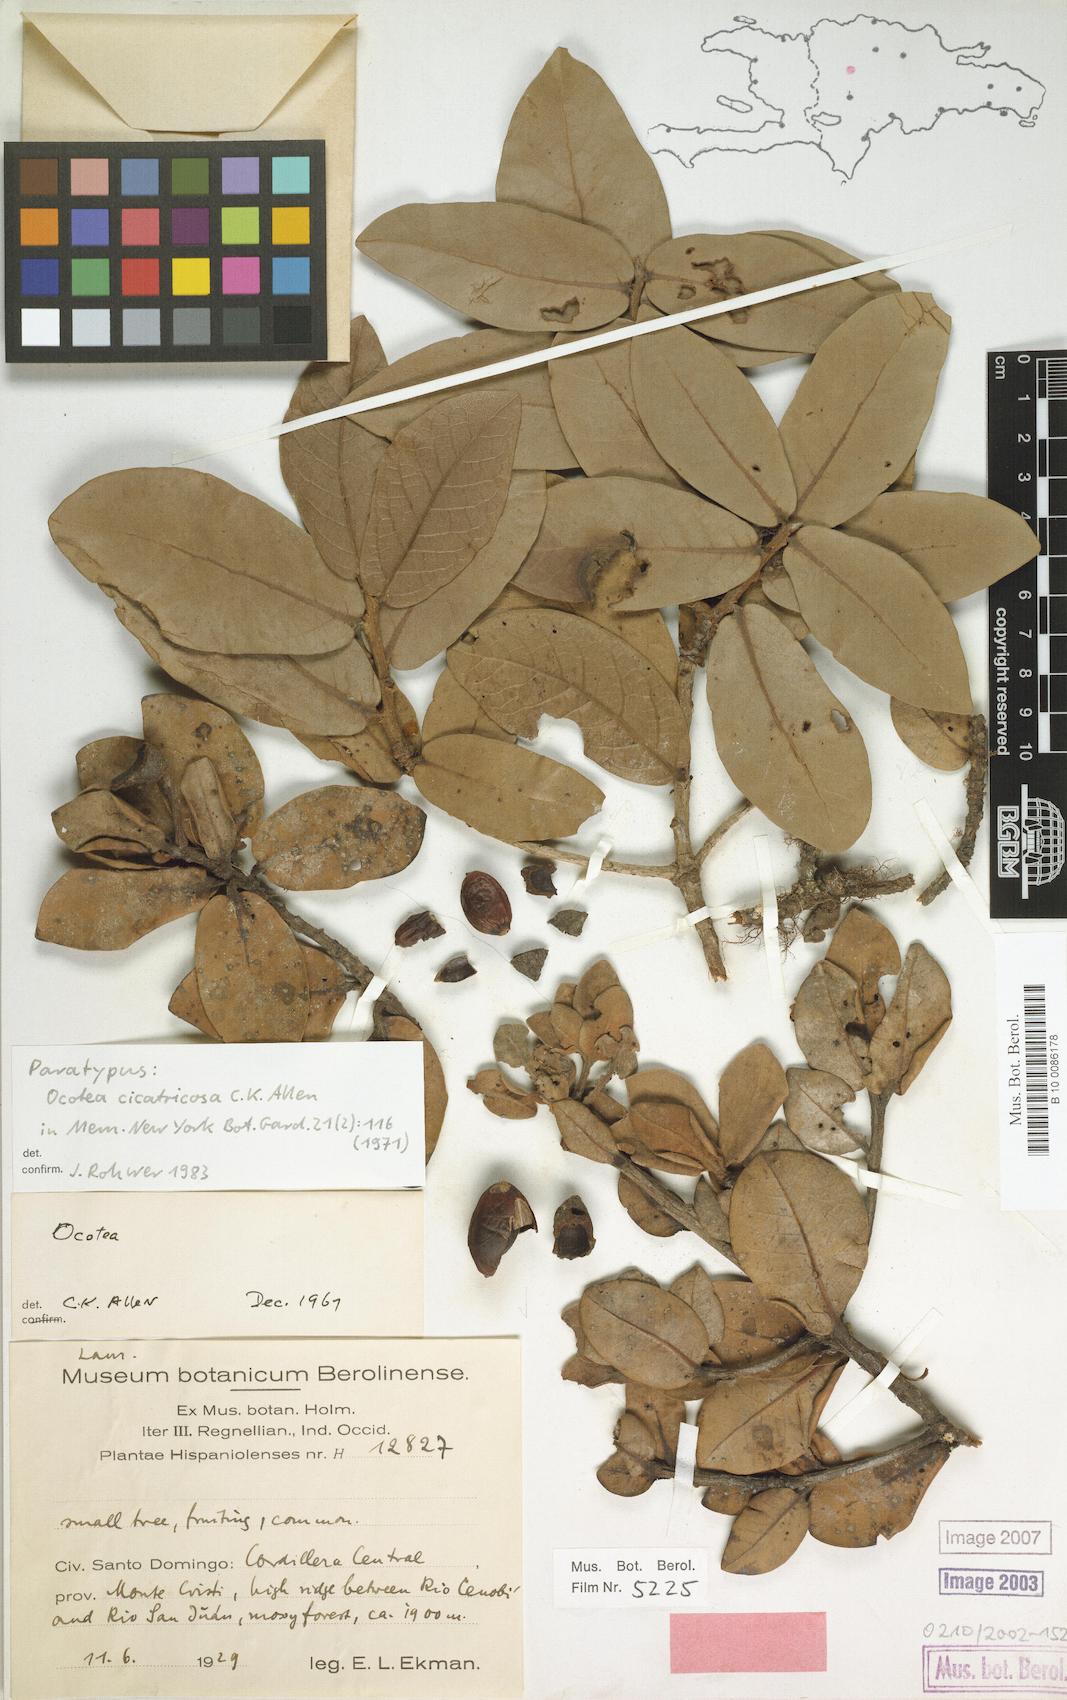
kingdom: Plantae
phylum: Tracheophyta
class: Magnoliopsida
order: Laurales
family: Lauraceae
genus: Ocotea
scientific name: Ocotea cicatricosa
